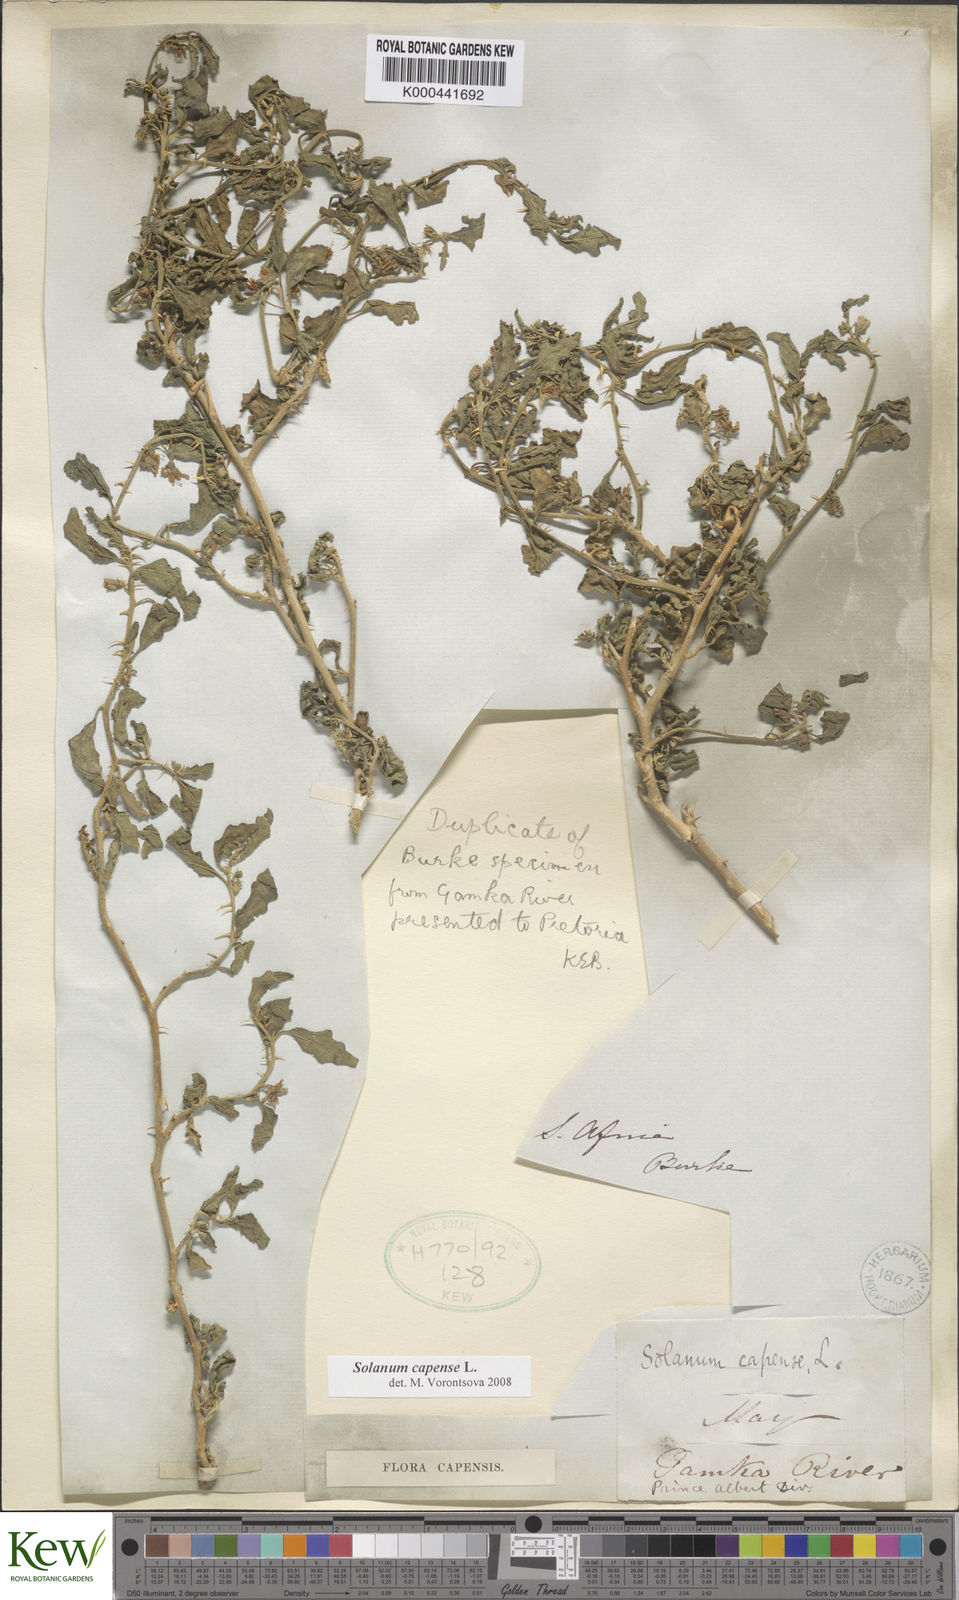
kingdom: Plantae
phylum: Tracheophyta
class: Magnoliopsida
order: Solanales
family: Solanaceae
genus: Solanum
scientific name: Solanum capense
